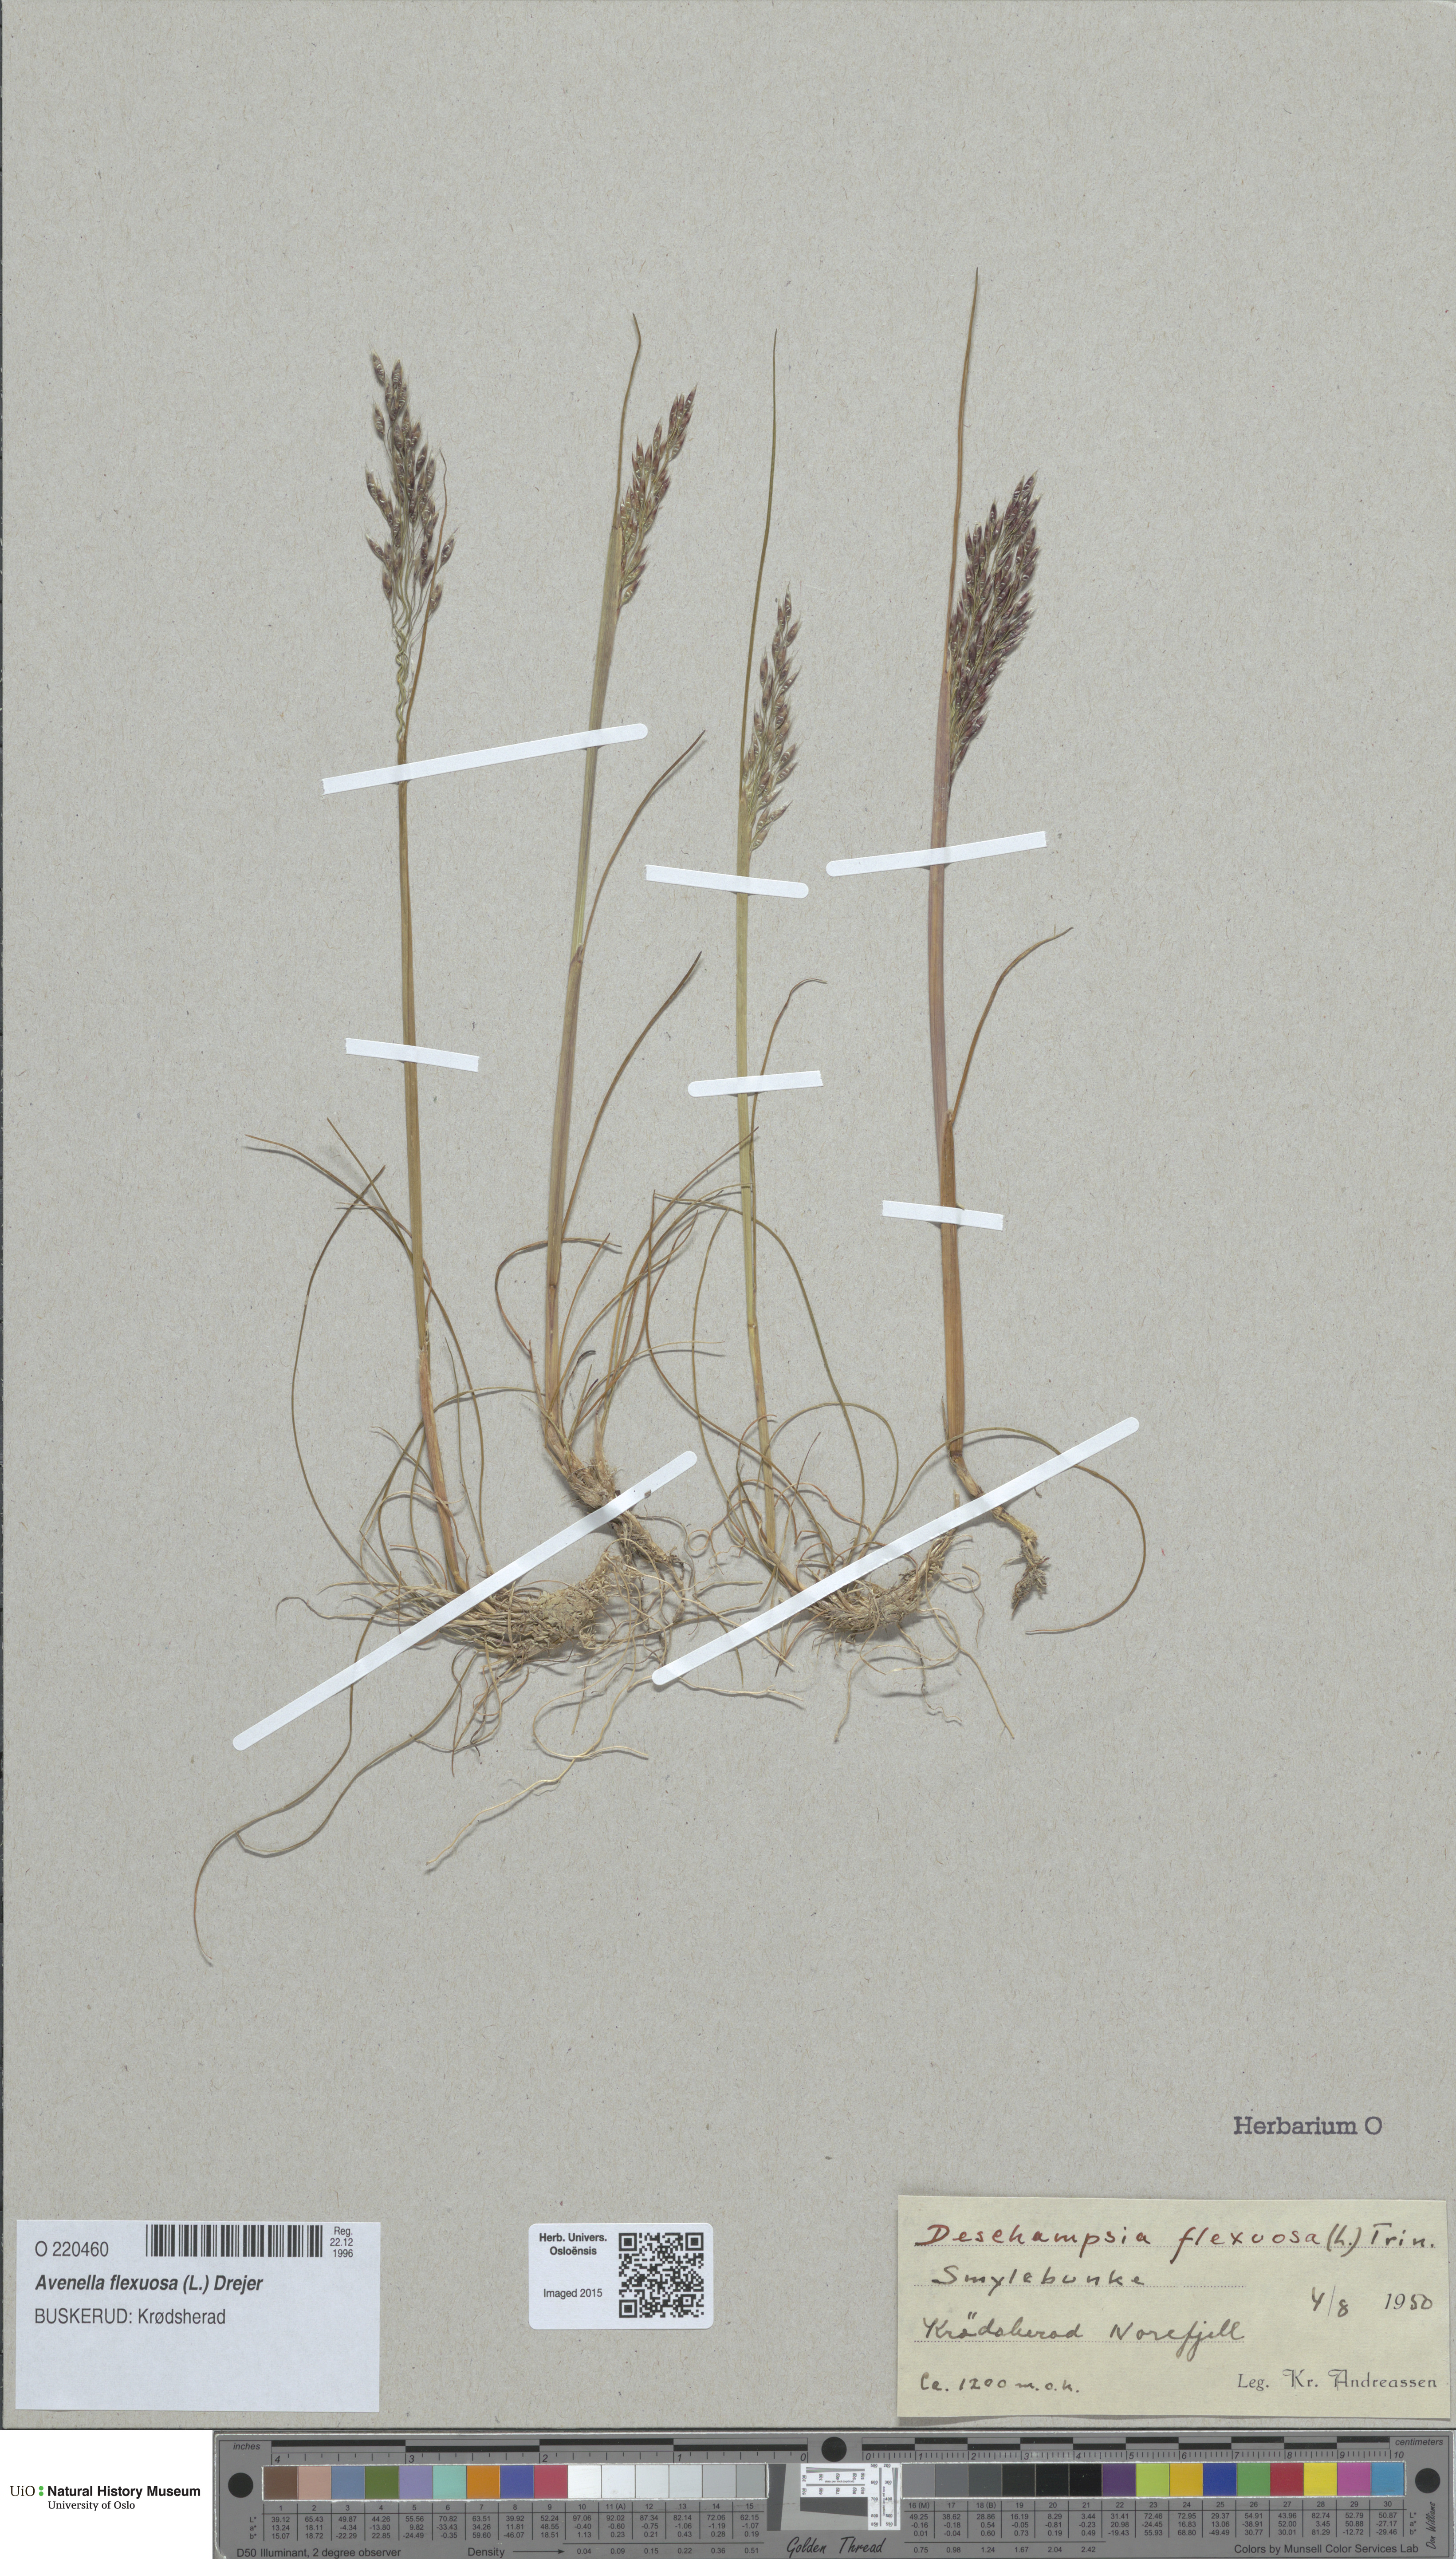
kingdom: Plantae
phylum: Tracheophyta
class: Liliopsida
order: Poales
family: Poaceae
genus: Avenella
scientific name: Avenella flexuosa
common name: Wavy hairgrass
